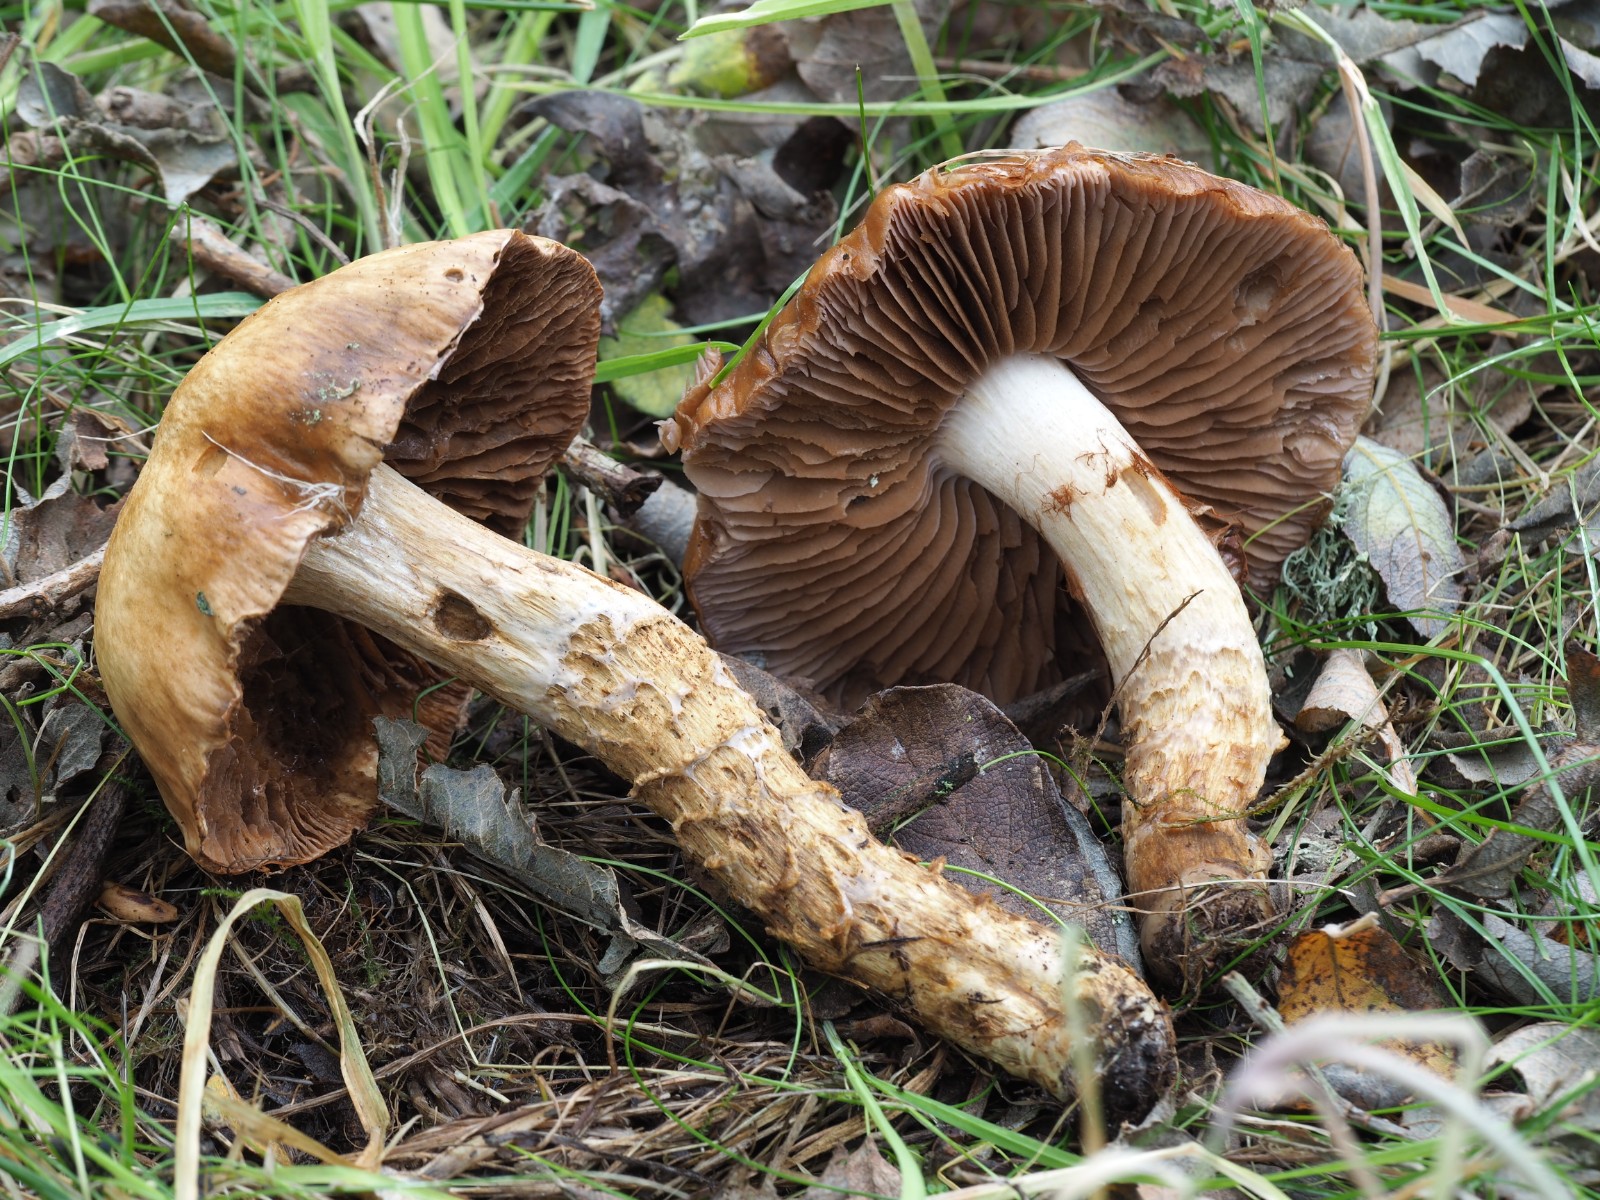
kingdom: Fungi
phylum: Basidiomycota
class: Agaricomycetes
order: Agaricales
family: Cortinariaceae
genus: Cortinarius
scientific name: Cortinarius trivialis
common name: brunslimet slørhat
